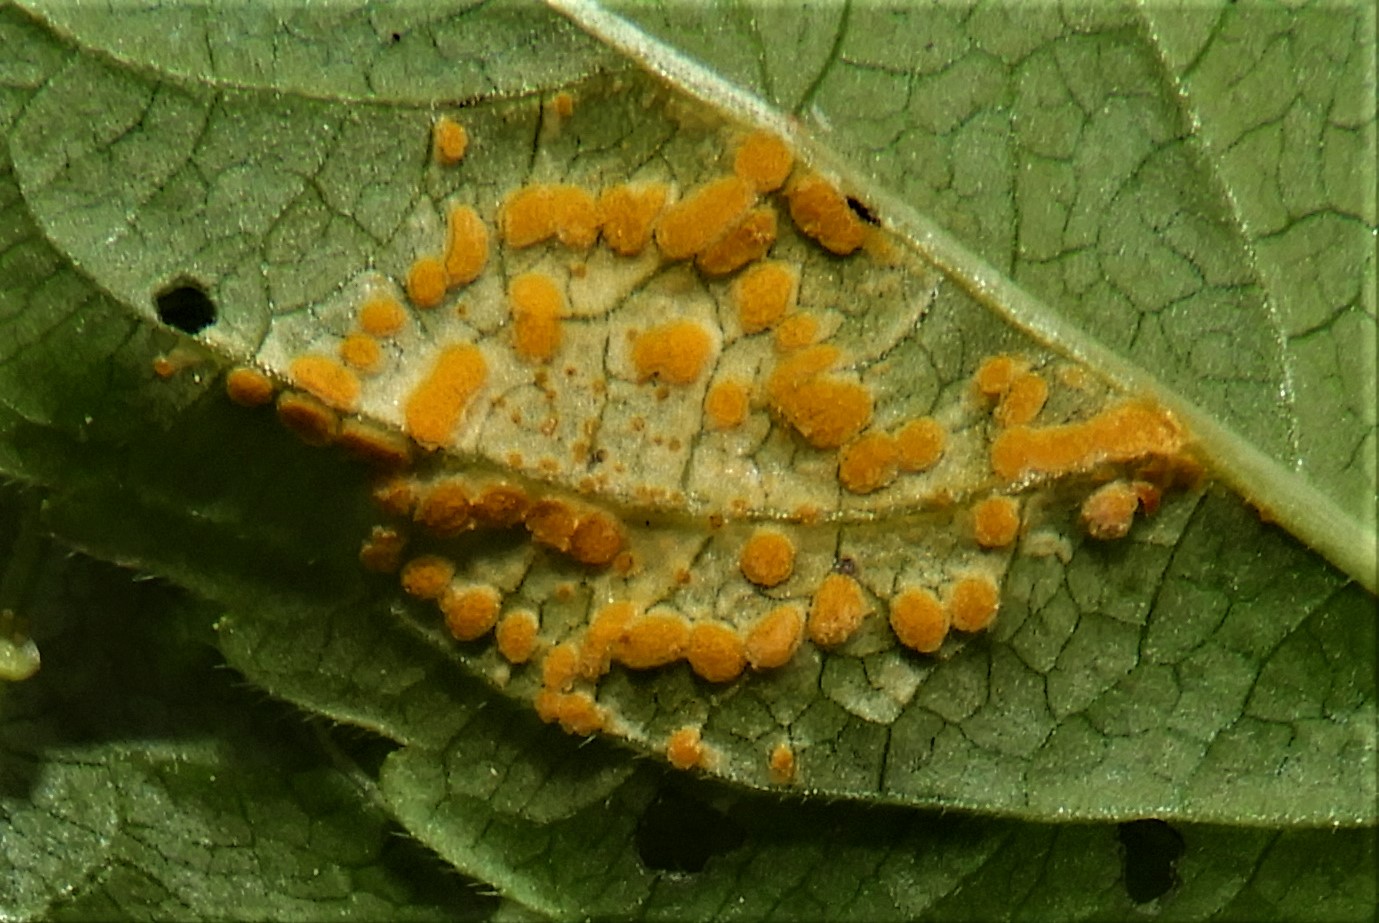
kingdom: Fungi
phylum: Basidiomycota
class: Pucciniomycetes
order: Pucciniales
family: Melampsoraceae
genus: Melampsora
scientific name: Melampsora populnea
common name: poppel-skorperust
